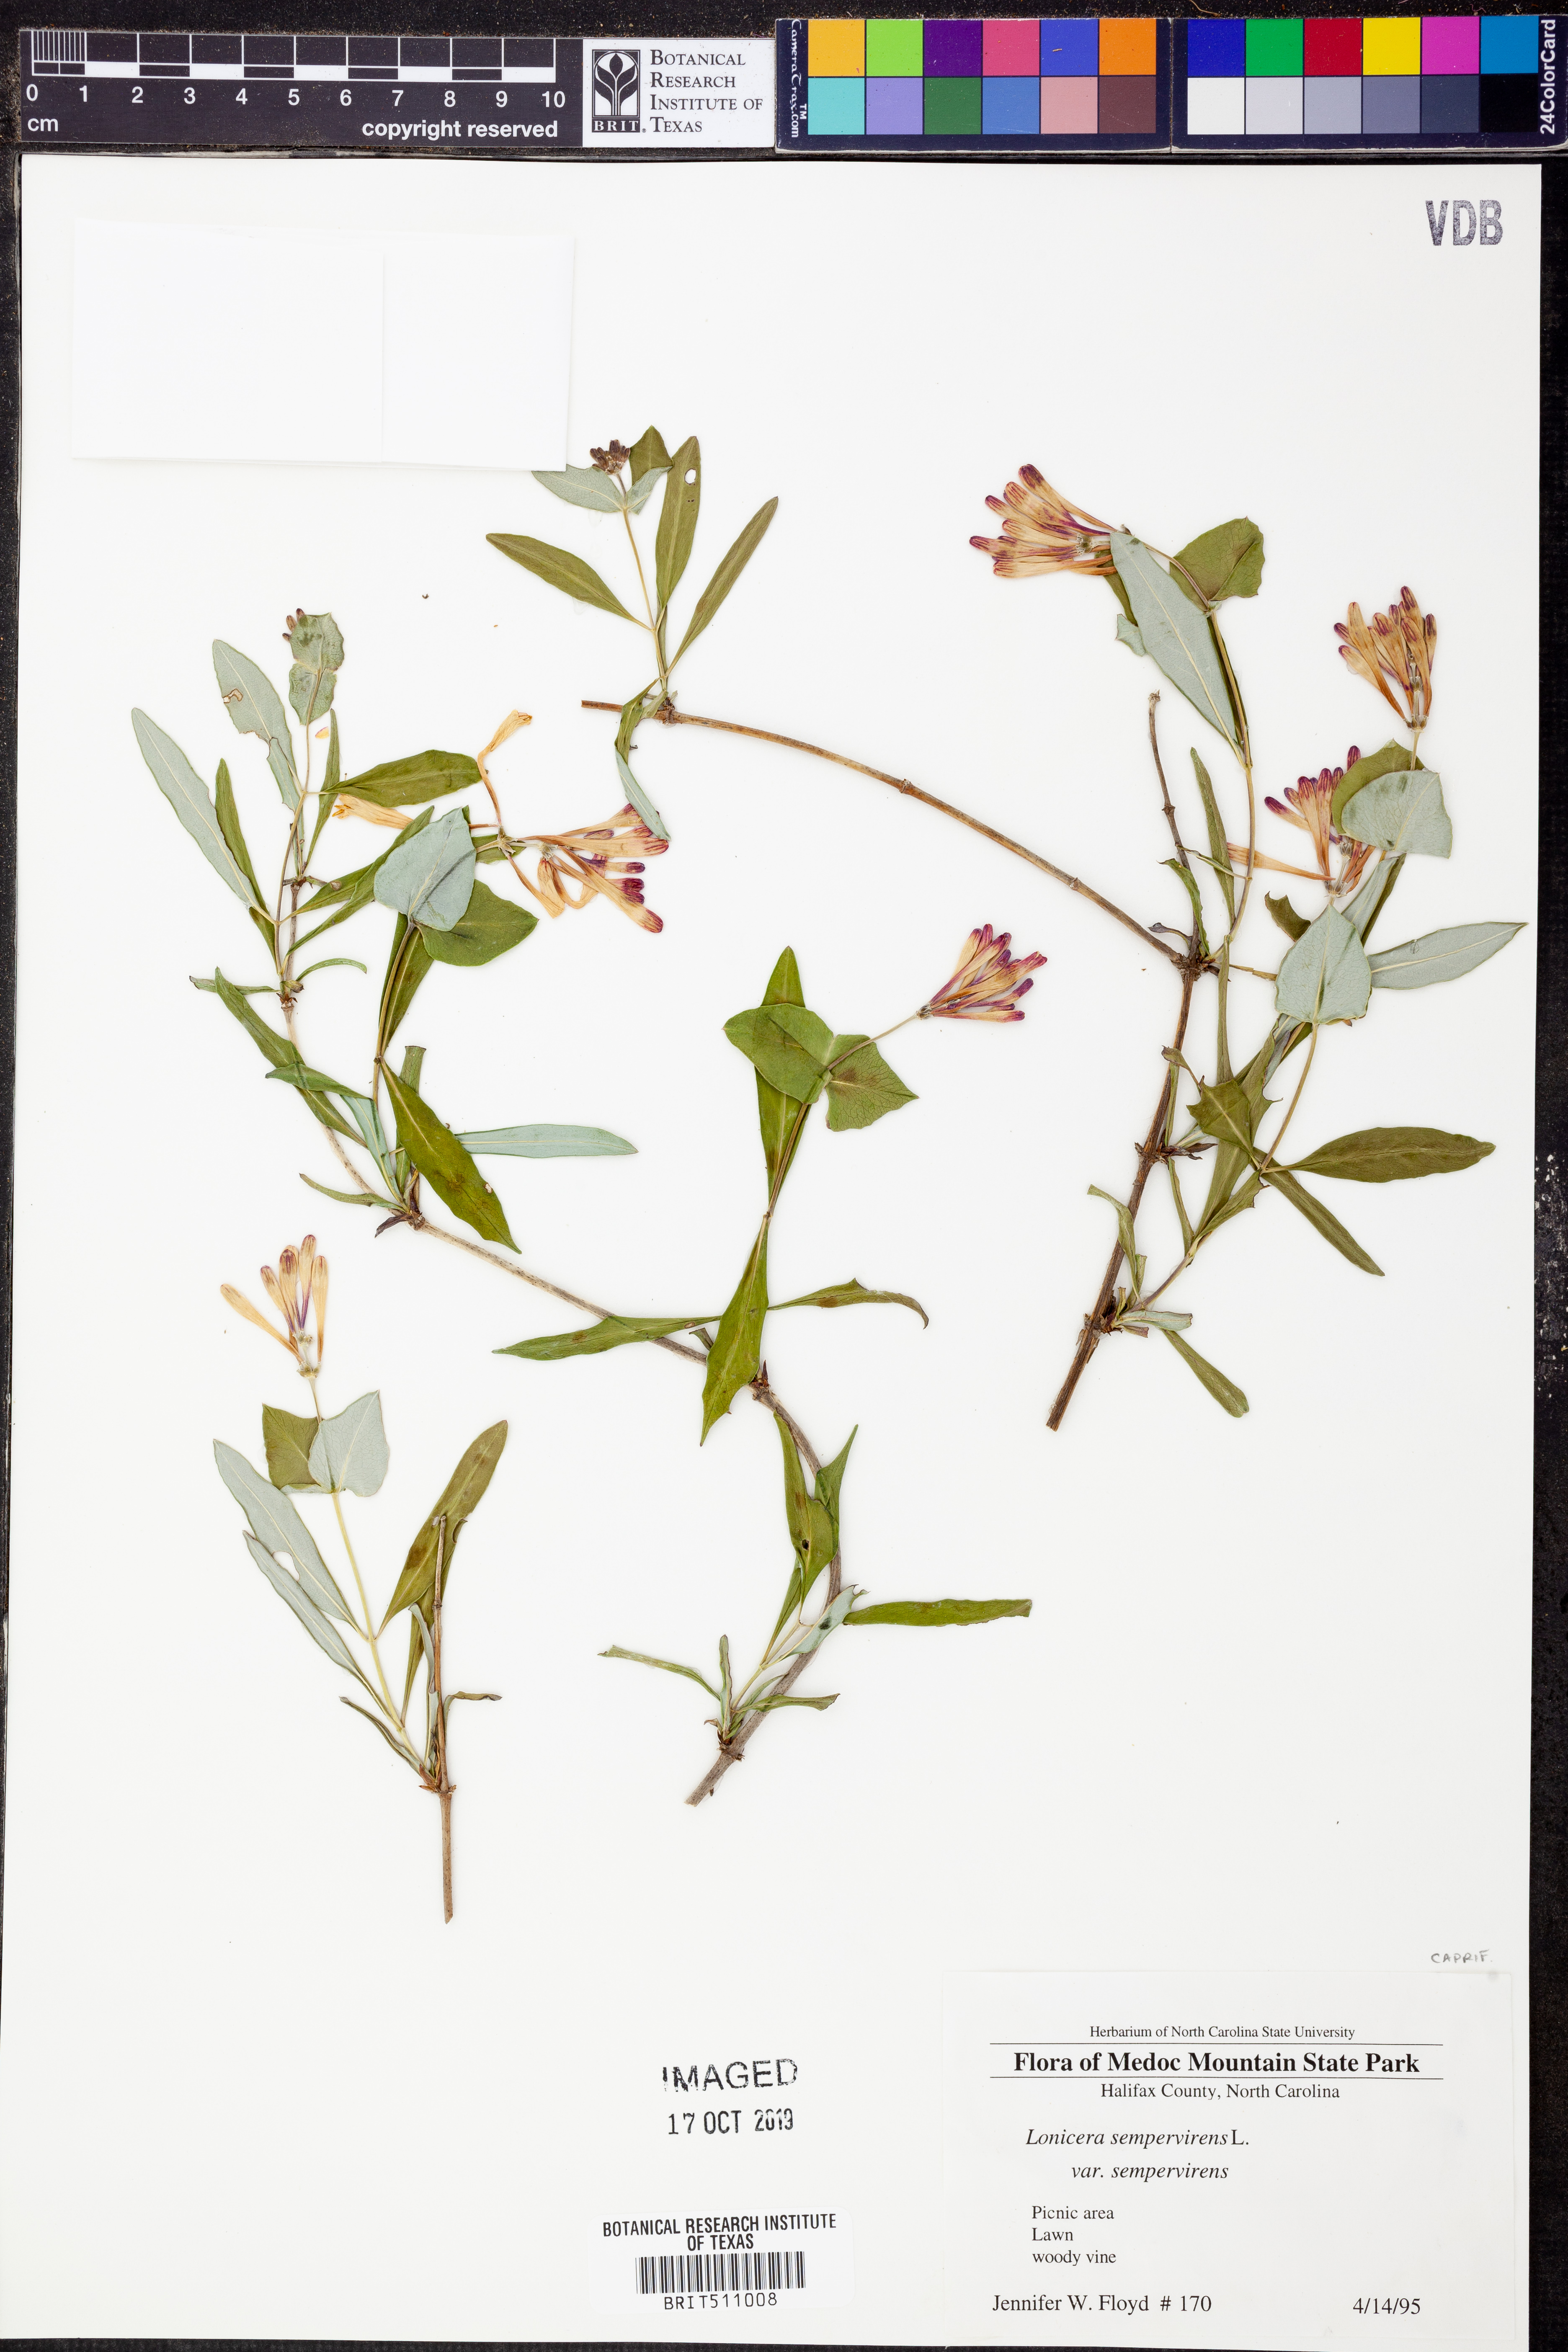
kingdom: Plantae
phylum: Tracheophyta
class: Magnoliopsida
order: Dipsacales
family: Caprifoliaceae
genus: Lonicera
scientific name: Lonicera sempervirens
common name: Coral honeysuckle
